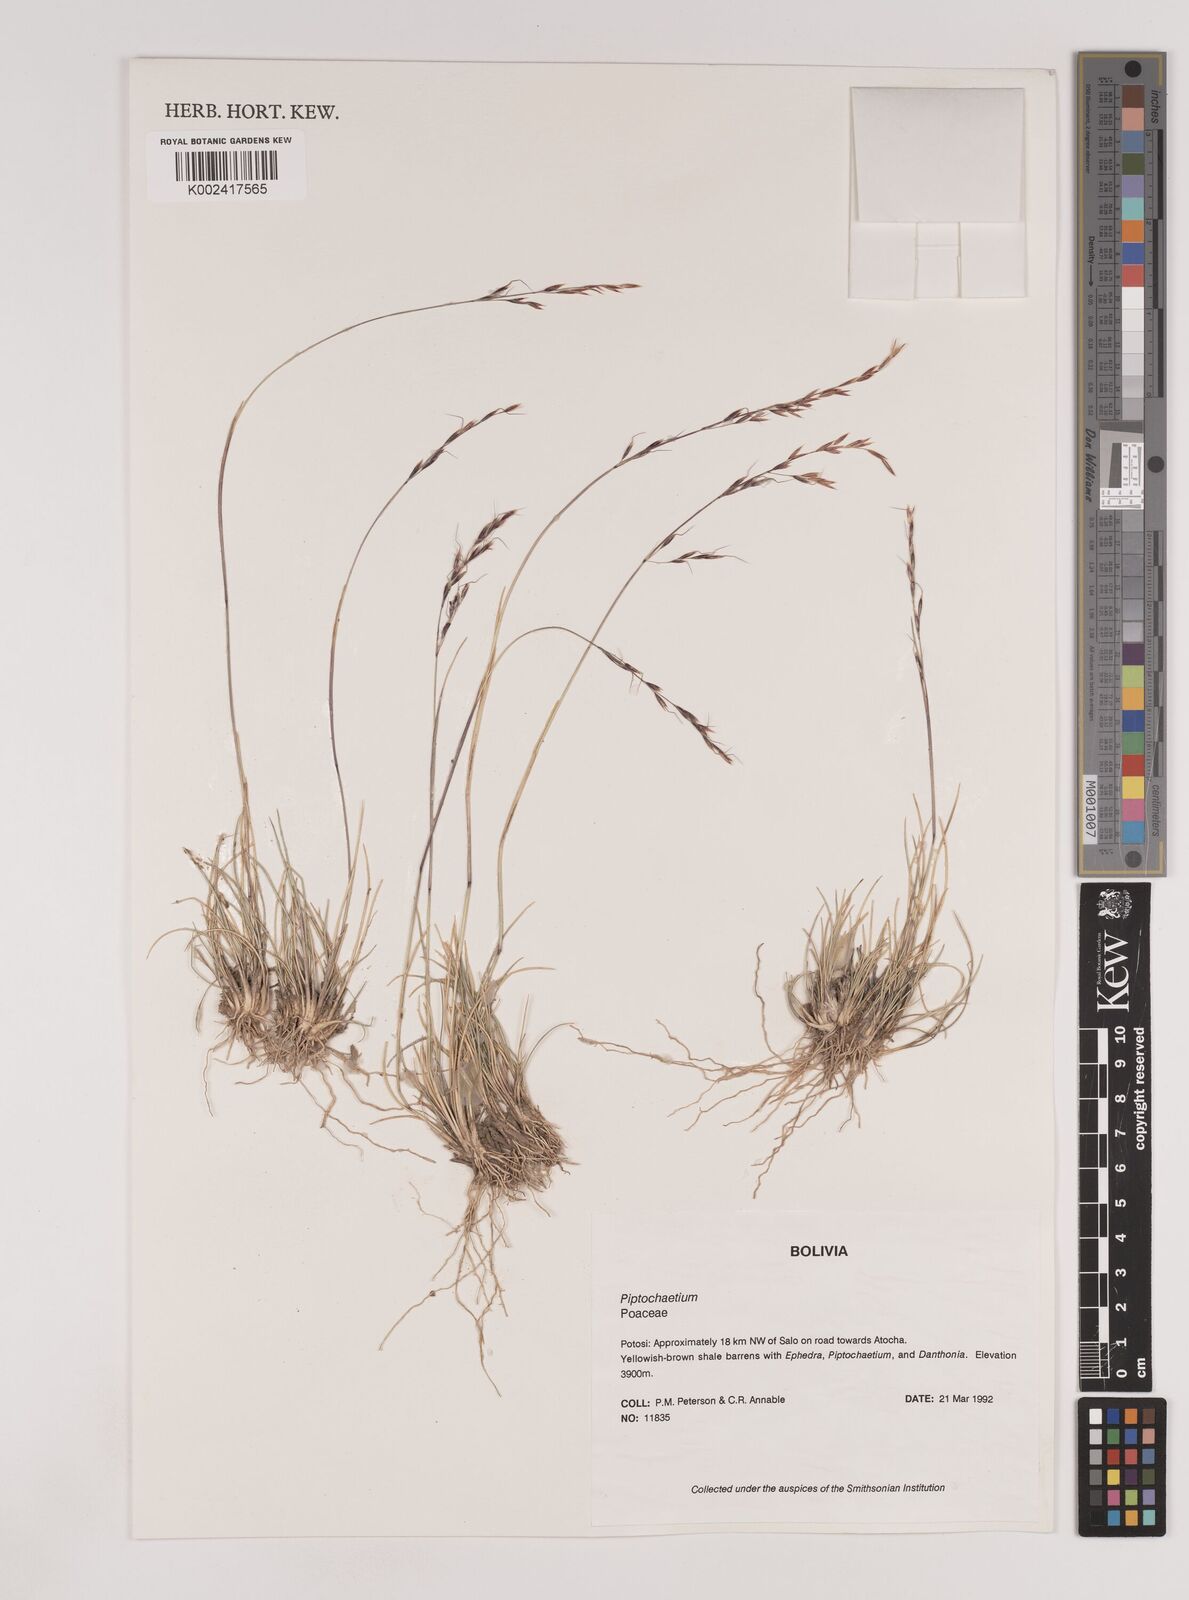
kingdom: Plantae
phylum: Tracheophyta
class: Liliopsida
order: Poales
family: Poaceae
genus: Nassella
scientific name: Nassella rupestris
